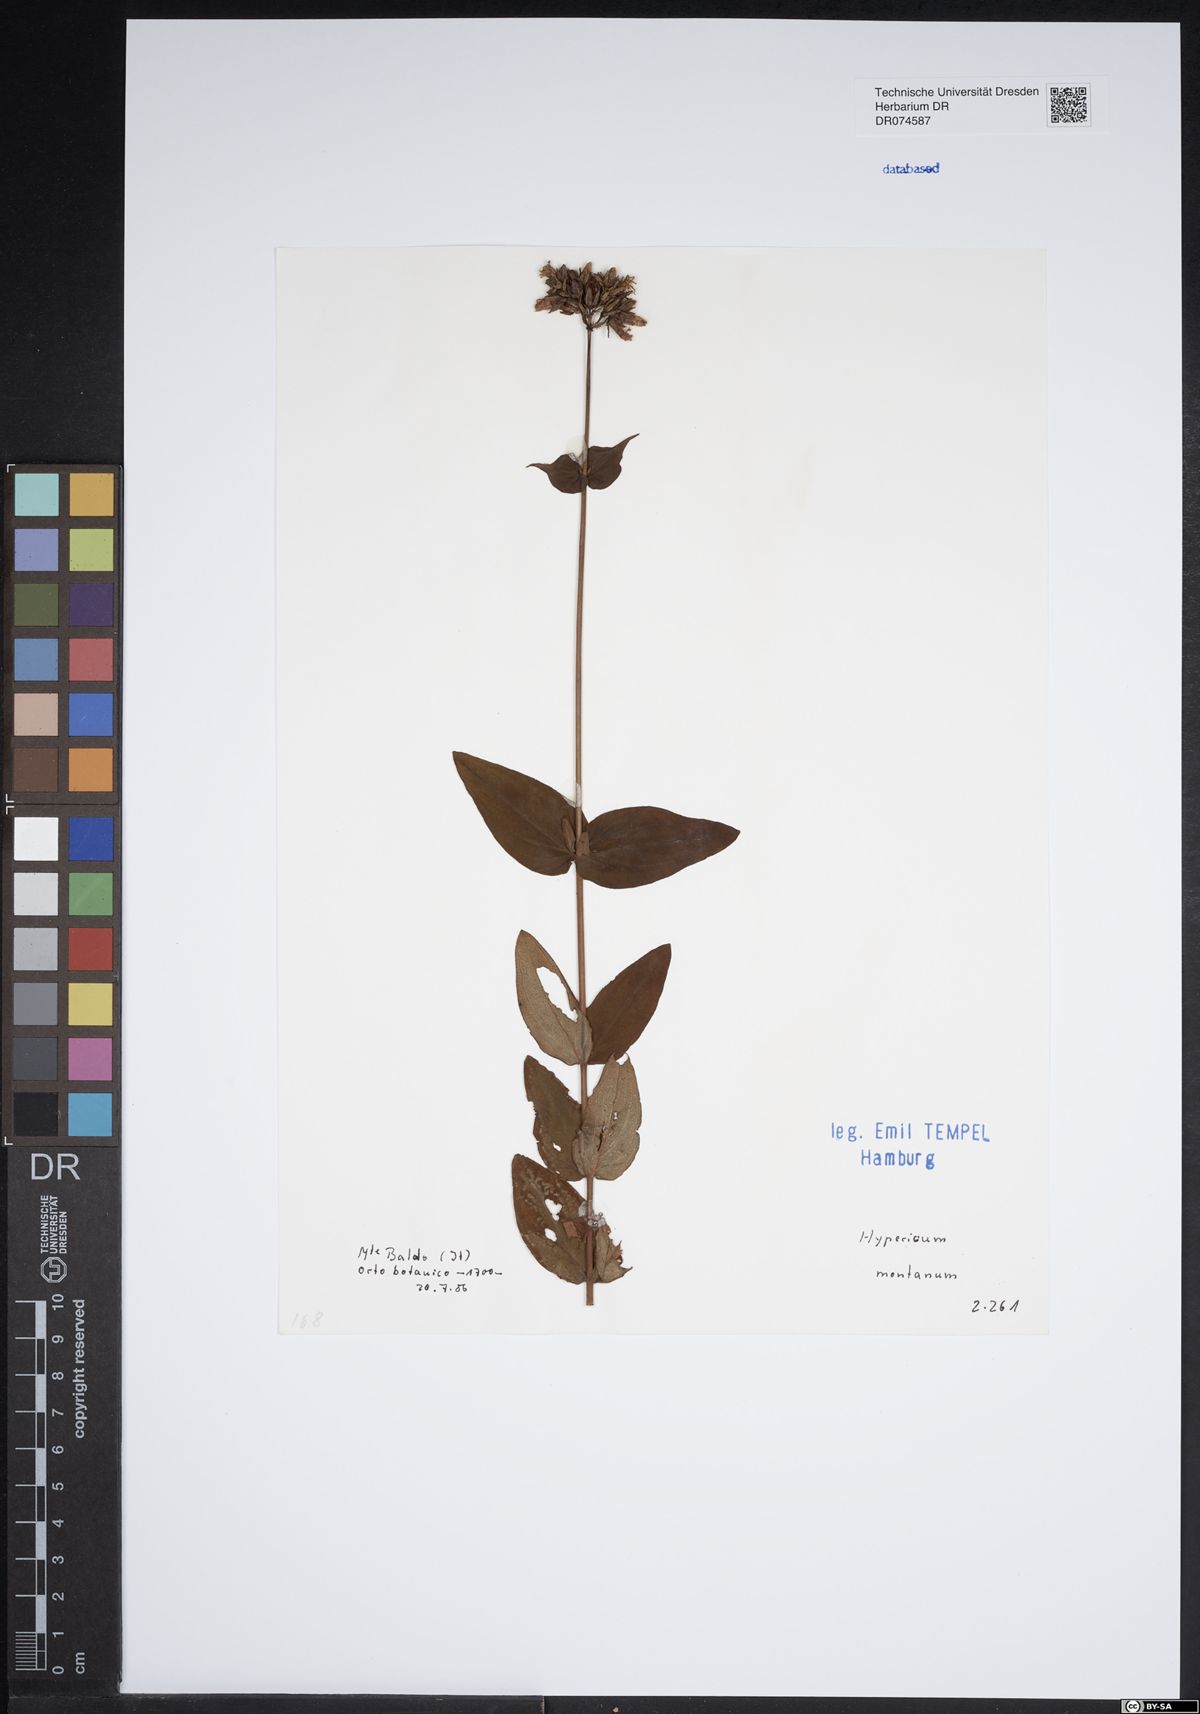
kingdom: Plantae
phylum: Tracheophyta
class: Magnoliopsida
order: Malpighiales
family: Hypericaceae
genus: Hypericum
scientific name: Hypericum montanum
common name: Pale st. john's-wort
